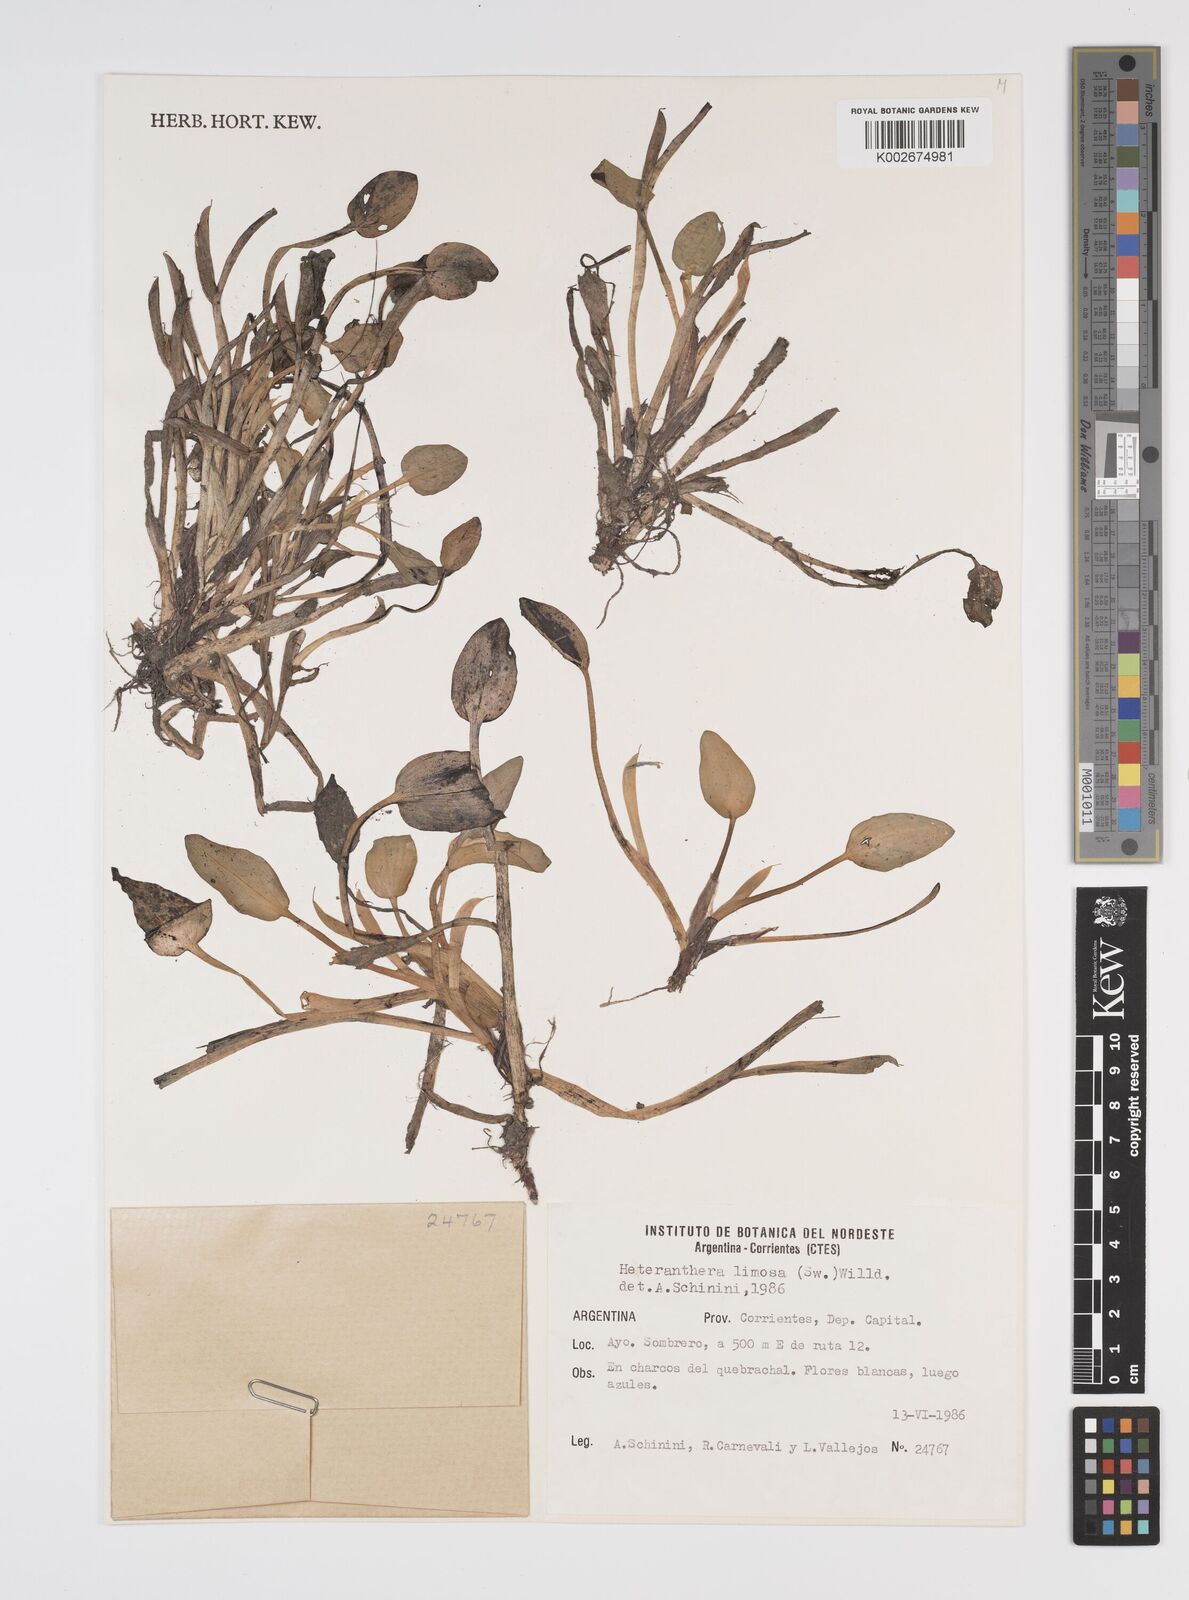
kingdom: Plantae
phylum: Tracheophyta
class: Liliopsida
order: Commelinales
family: Pontederiaceae
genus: Heteranthera
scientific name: Heteranthera limosa
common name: Blue mud-plantain
